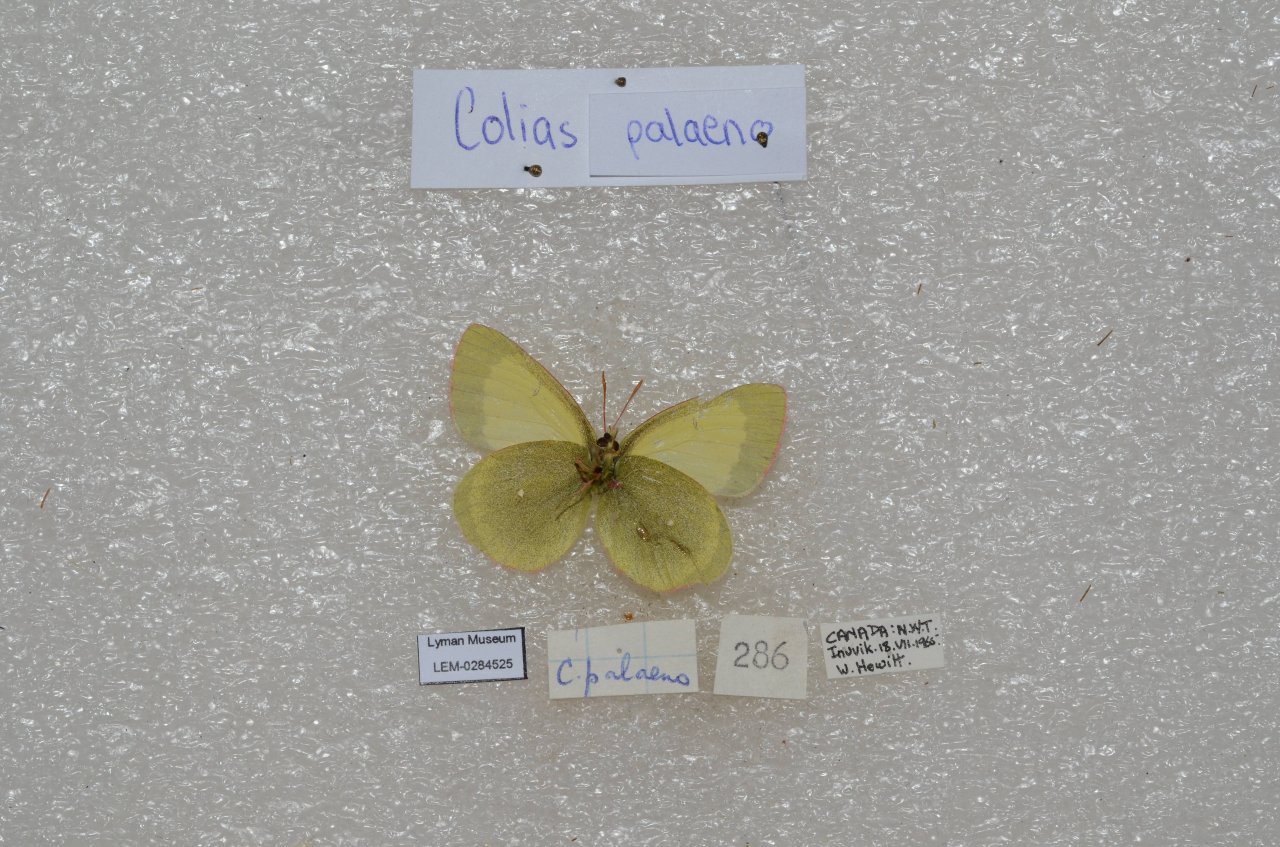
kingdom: Animalia
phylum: Arthropoda
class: Insecta
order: Lepidoptera
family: Pieridae
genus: Colias
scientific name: Colias palaeno
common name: Chippewa Sulphur
